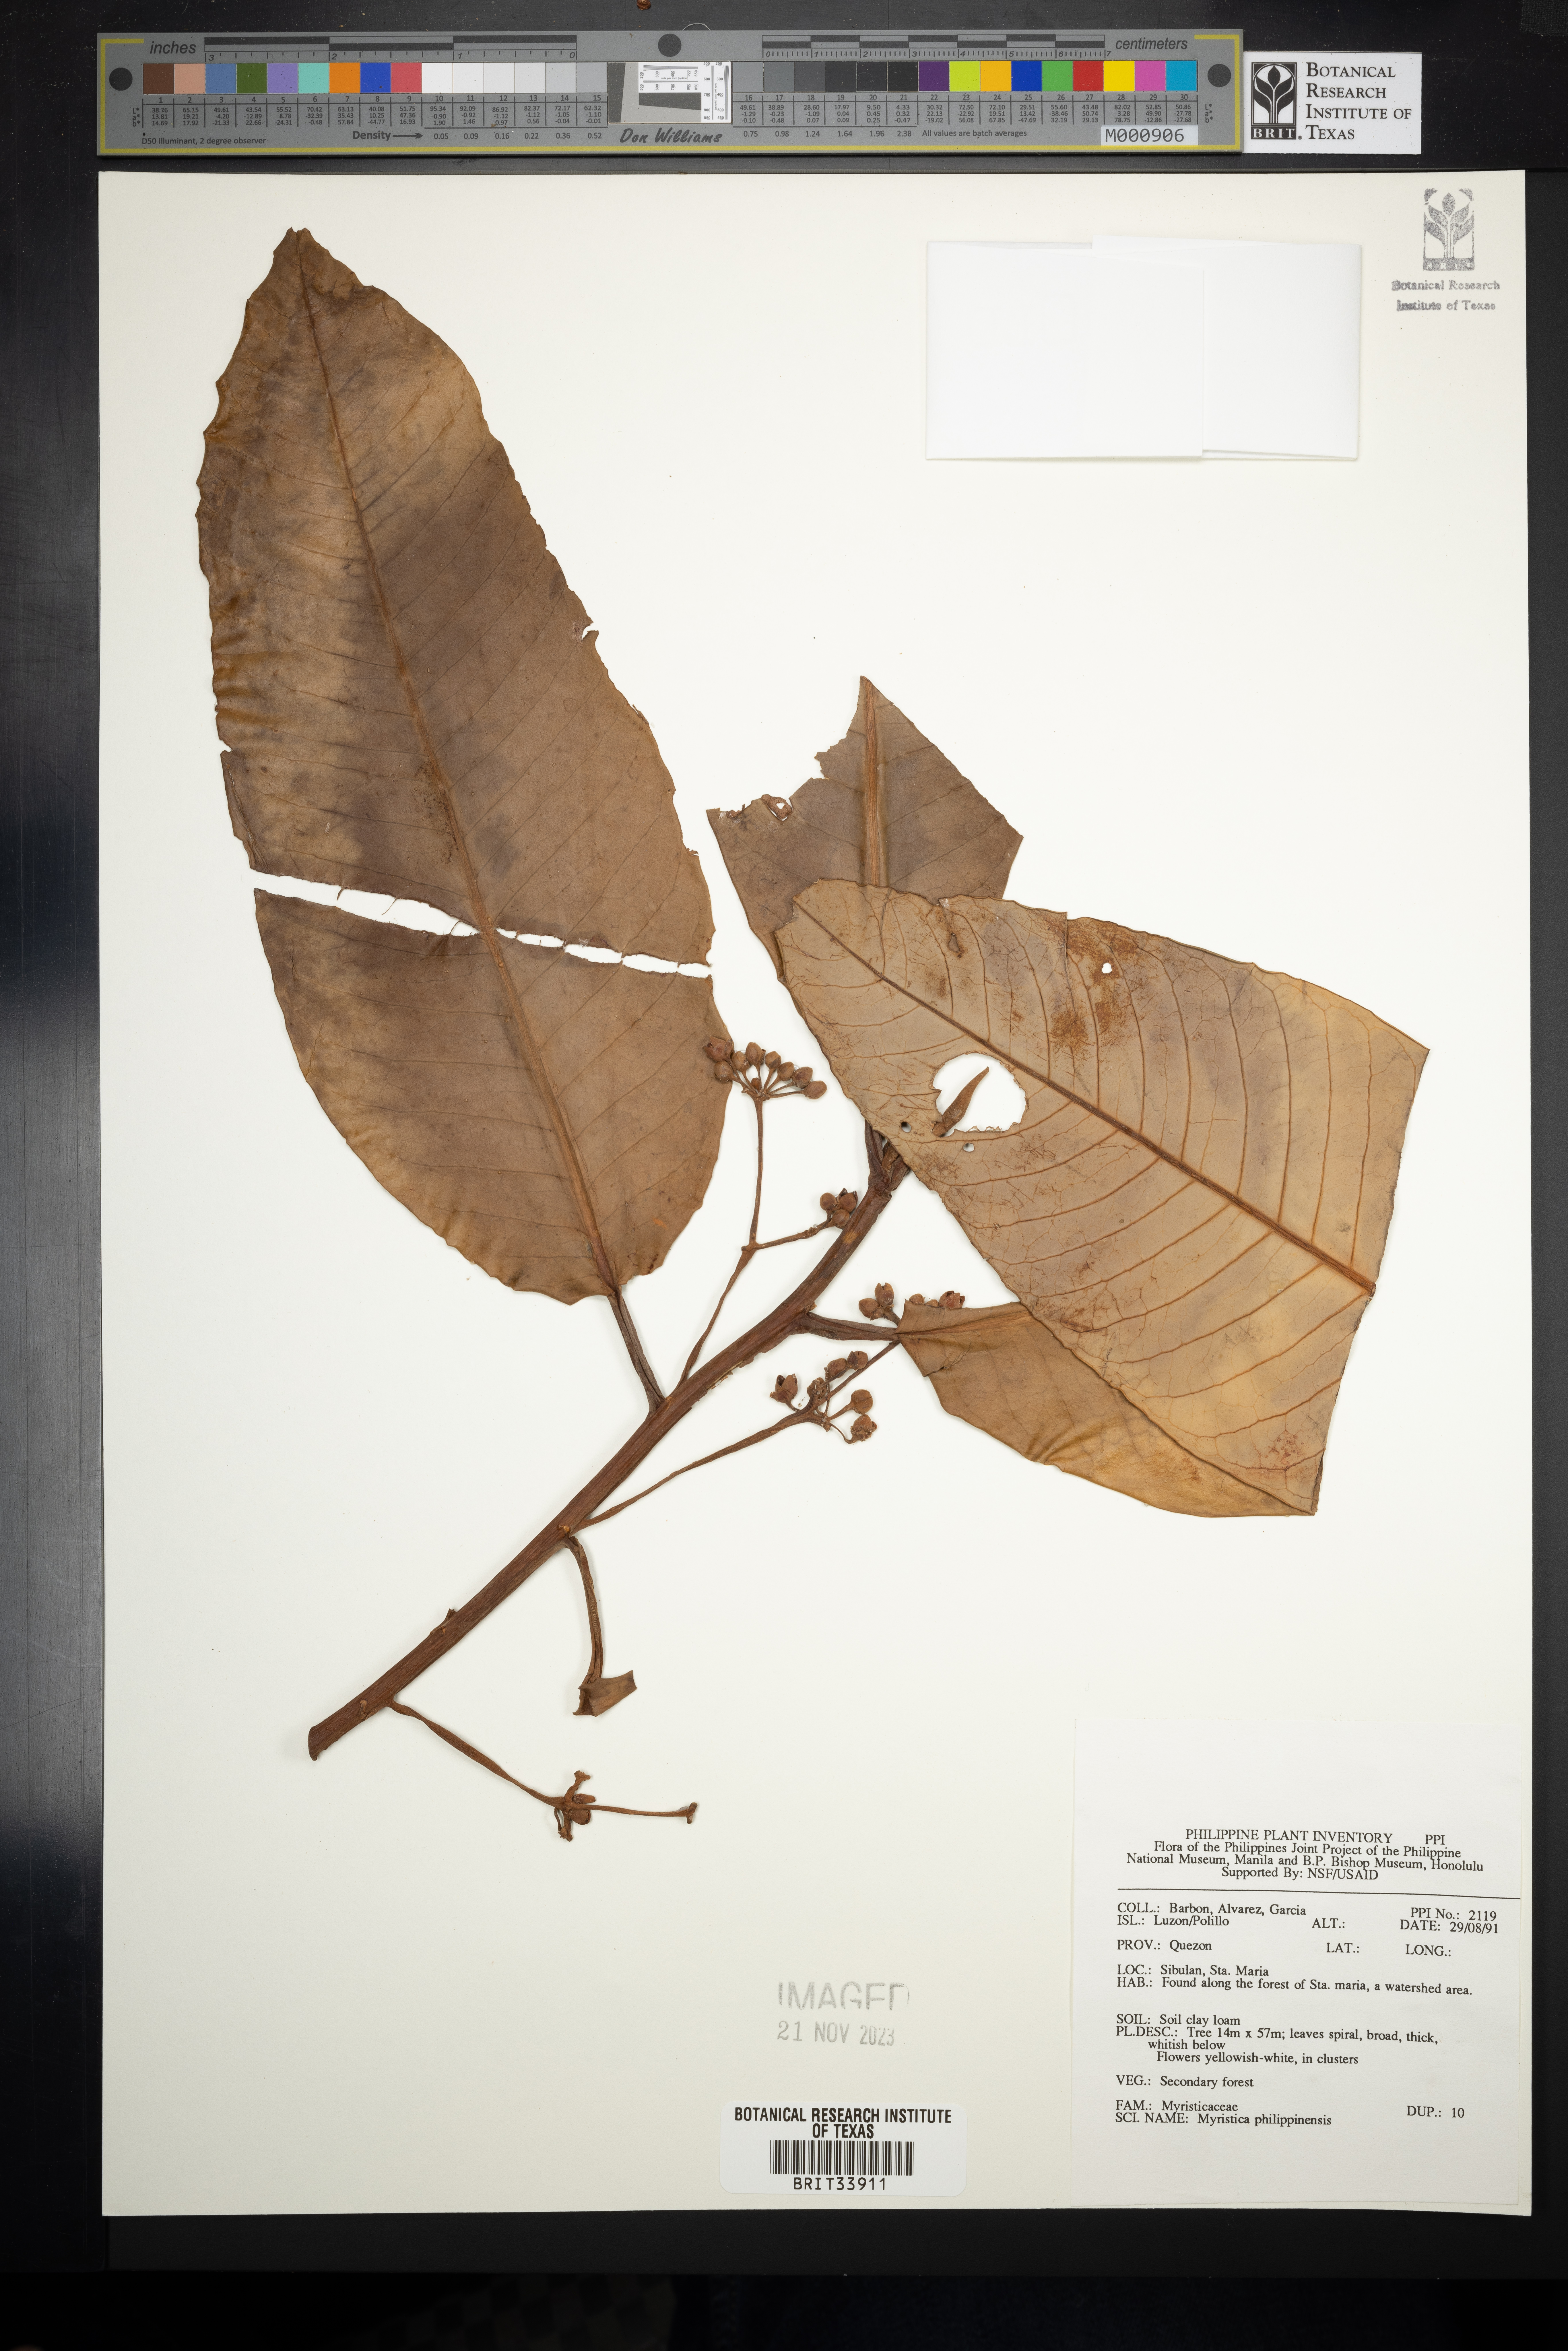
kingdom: Plantae
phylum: Tracheophyta
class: Magnoliopsida
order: Magnoliales
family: Myristicaceae
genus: Myristica
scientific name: Myristica fragrans
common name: Nutmeg
